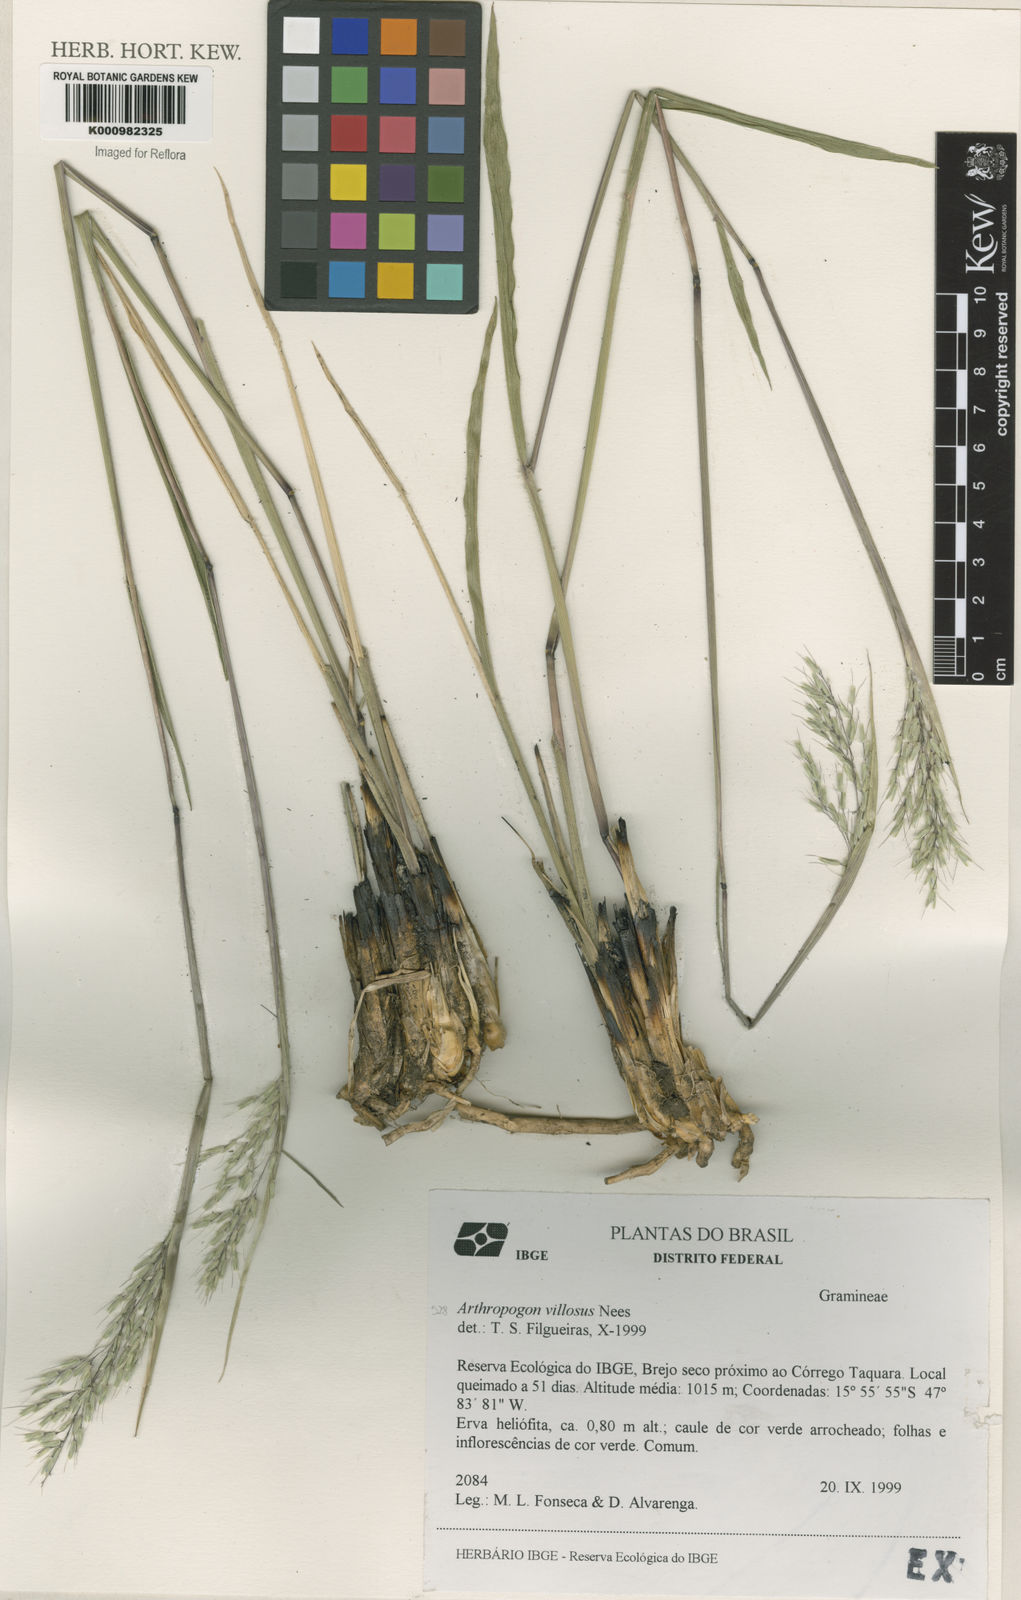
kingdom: Plantae
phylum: Tracheophyta
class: Liliopsida
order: Poales
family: Poaceae
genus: Arthropogon
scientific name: Arthropogon villosus
